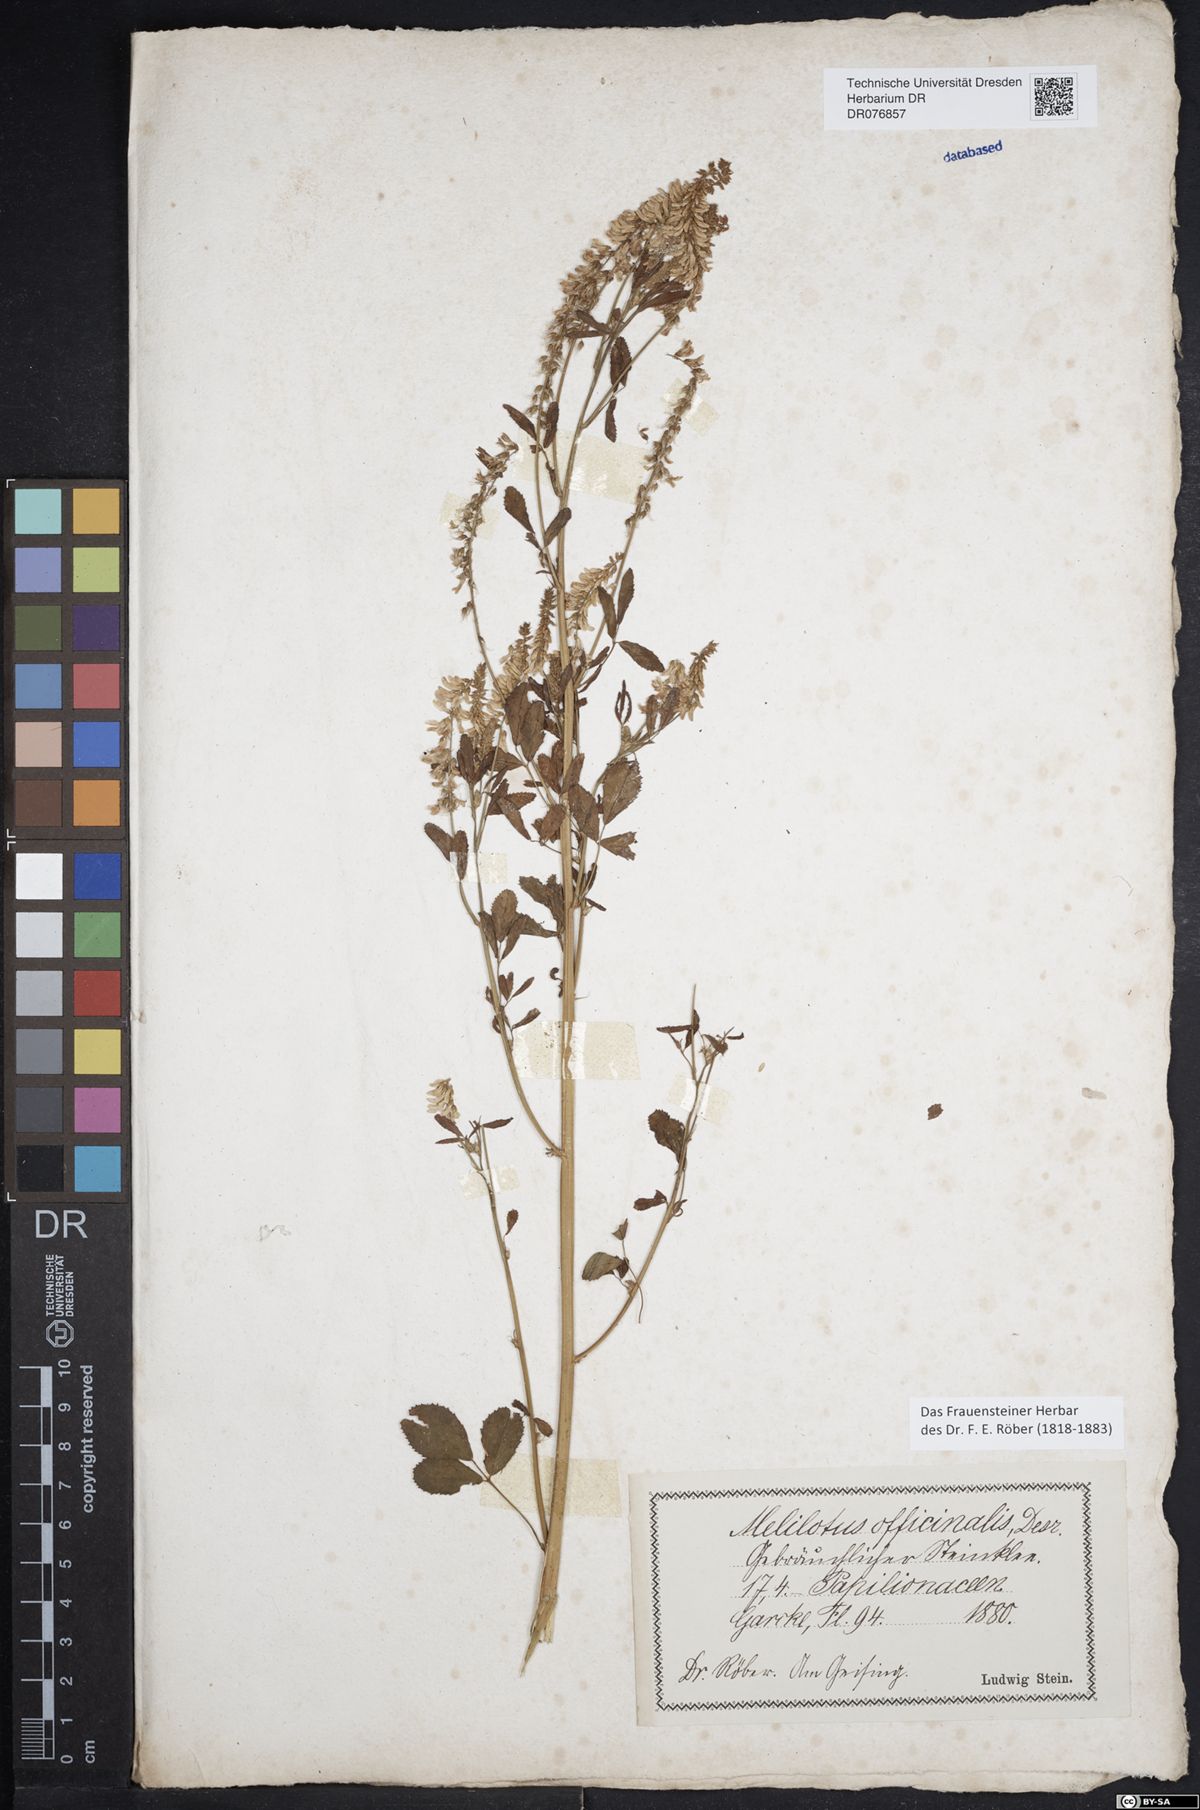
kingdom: Plantae
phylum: Tracheophyta
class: Magnoliopsida
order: Fabales
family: Fabaceae
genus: Melilotus
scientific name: Melilotus officinalis
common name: Sweetclover
